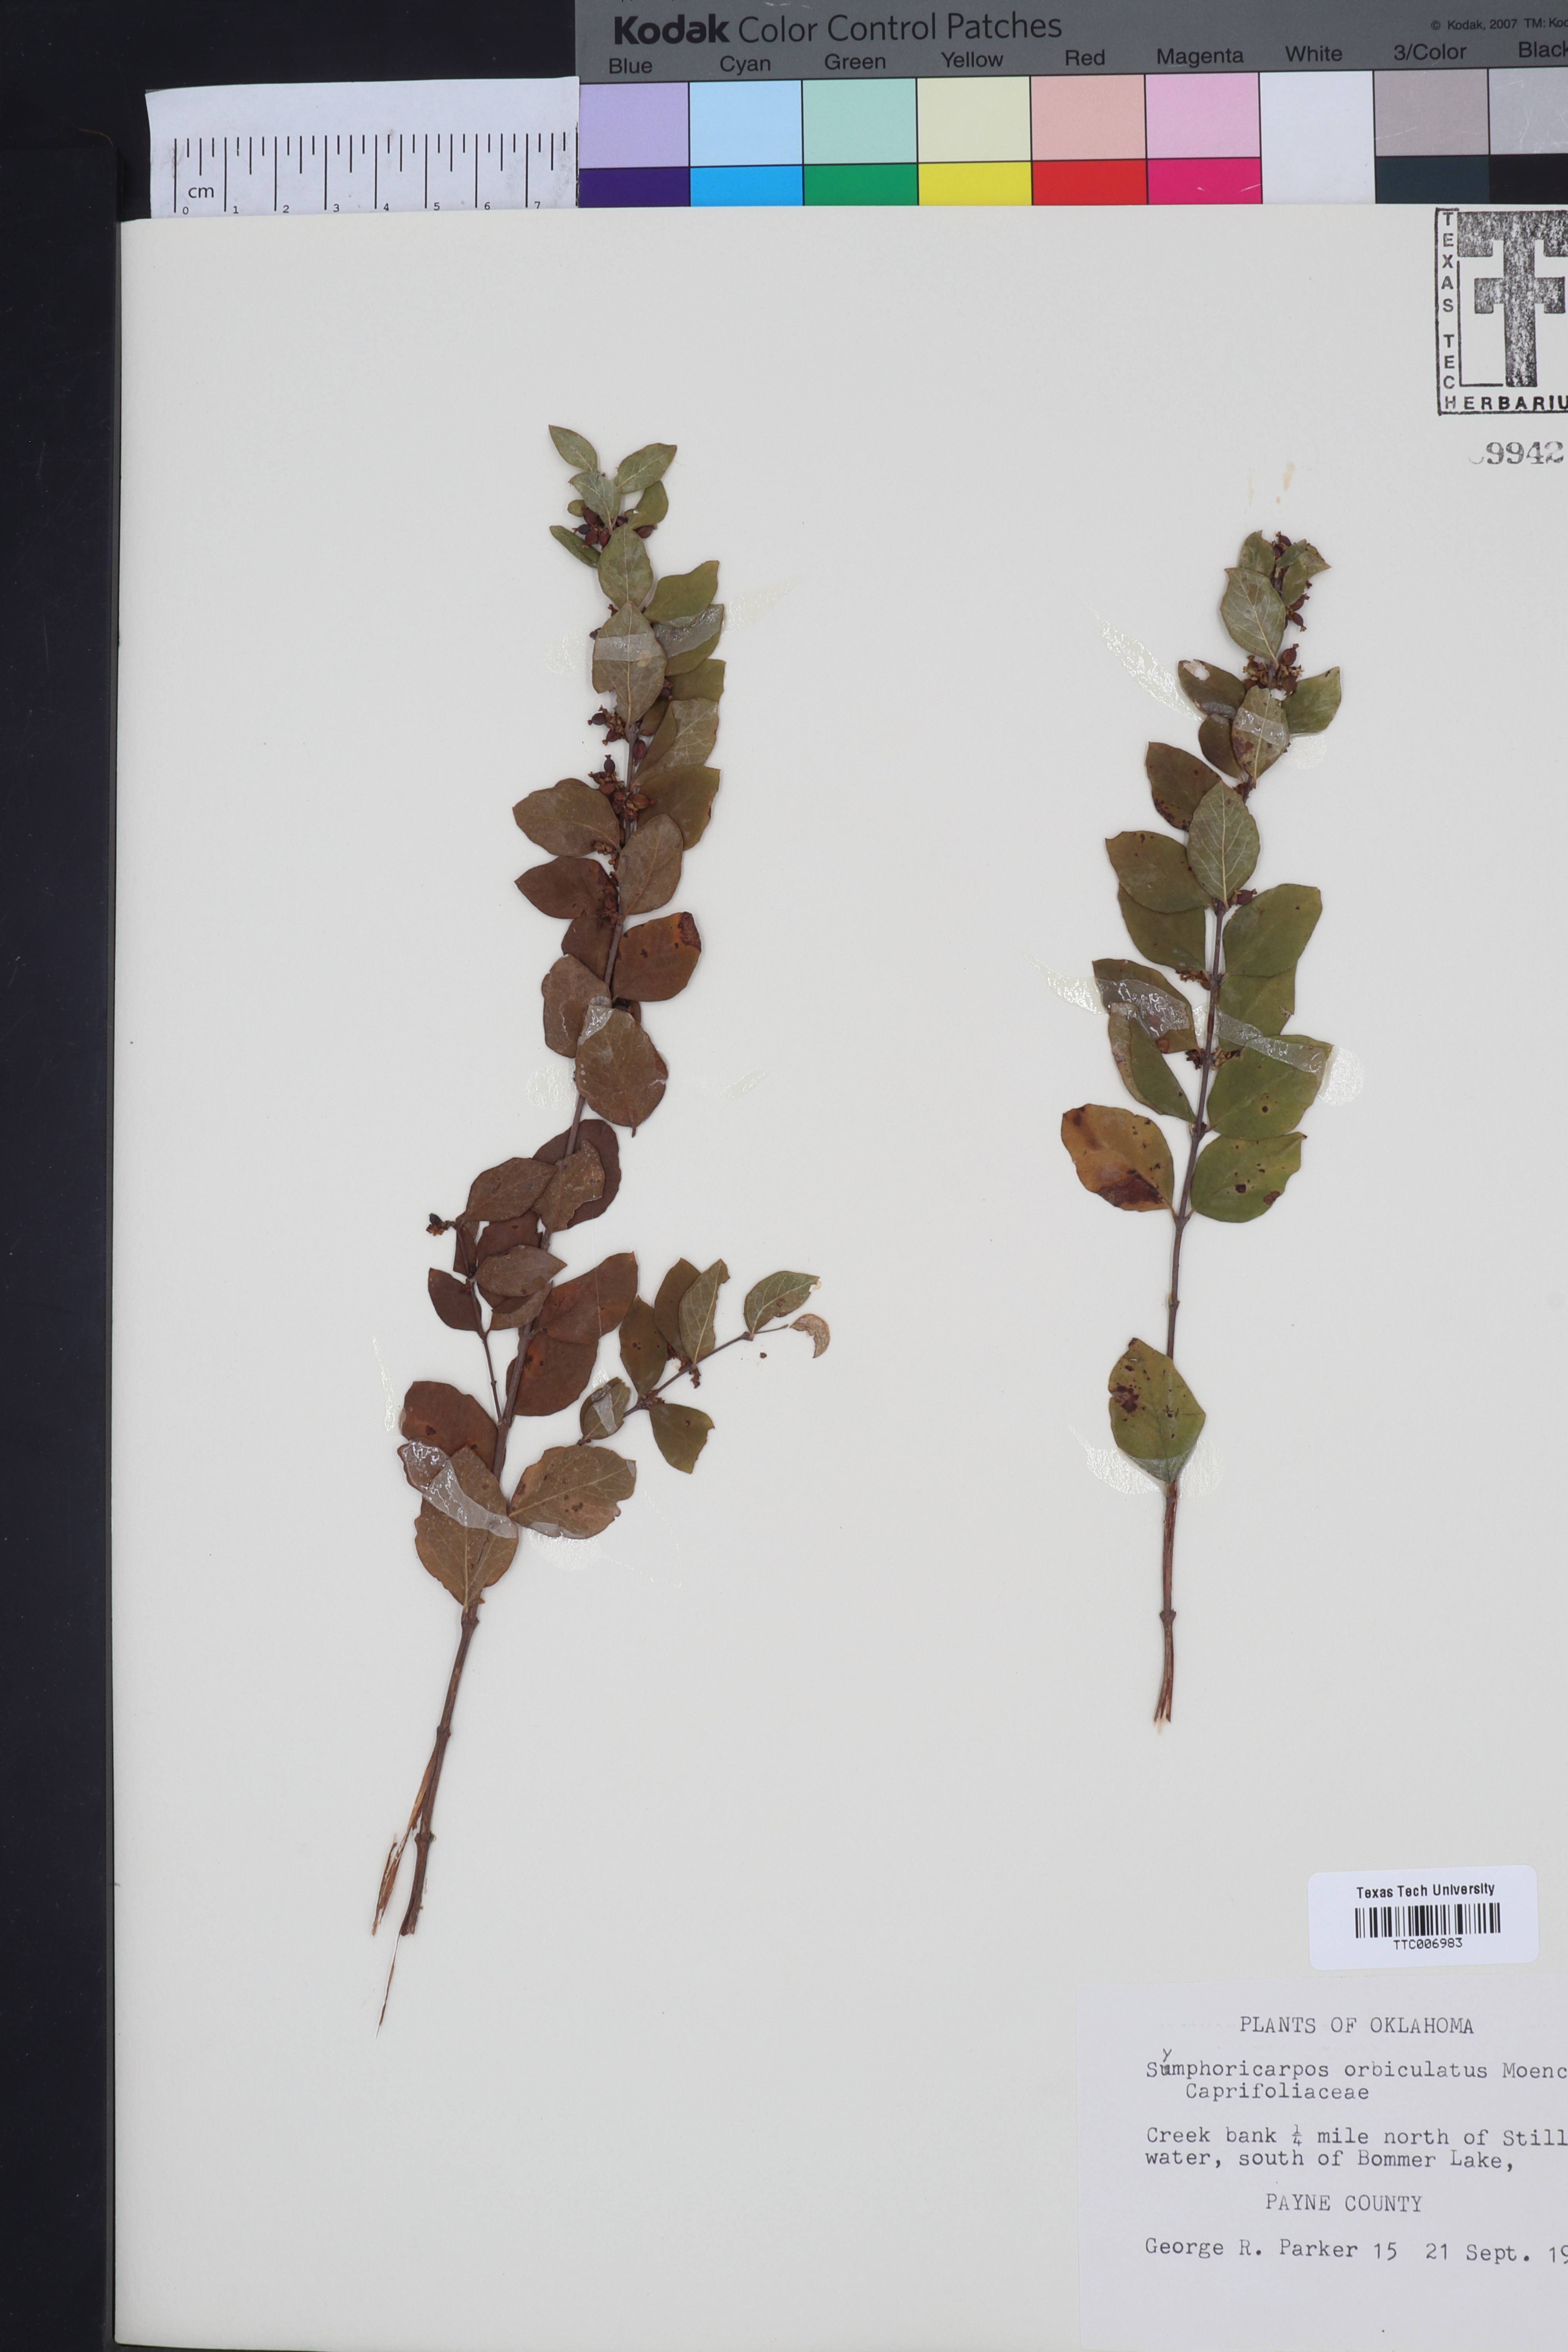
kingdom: Plantae
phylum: Tracheophyta
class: Magnoliopsida
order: Dipsacales
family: Caprifoliaceae
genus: Symphoricarpos
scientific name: Symphoricarpos orbiculatus
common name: Coralberry
